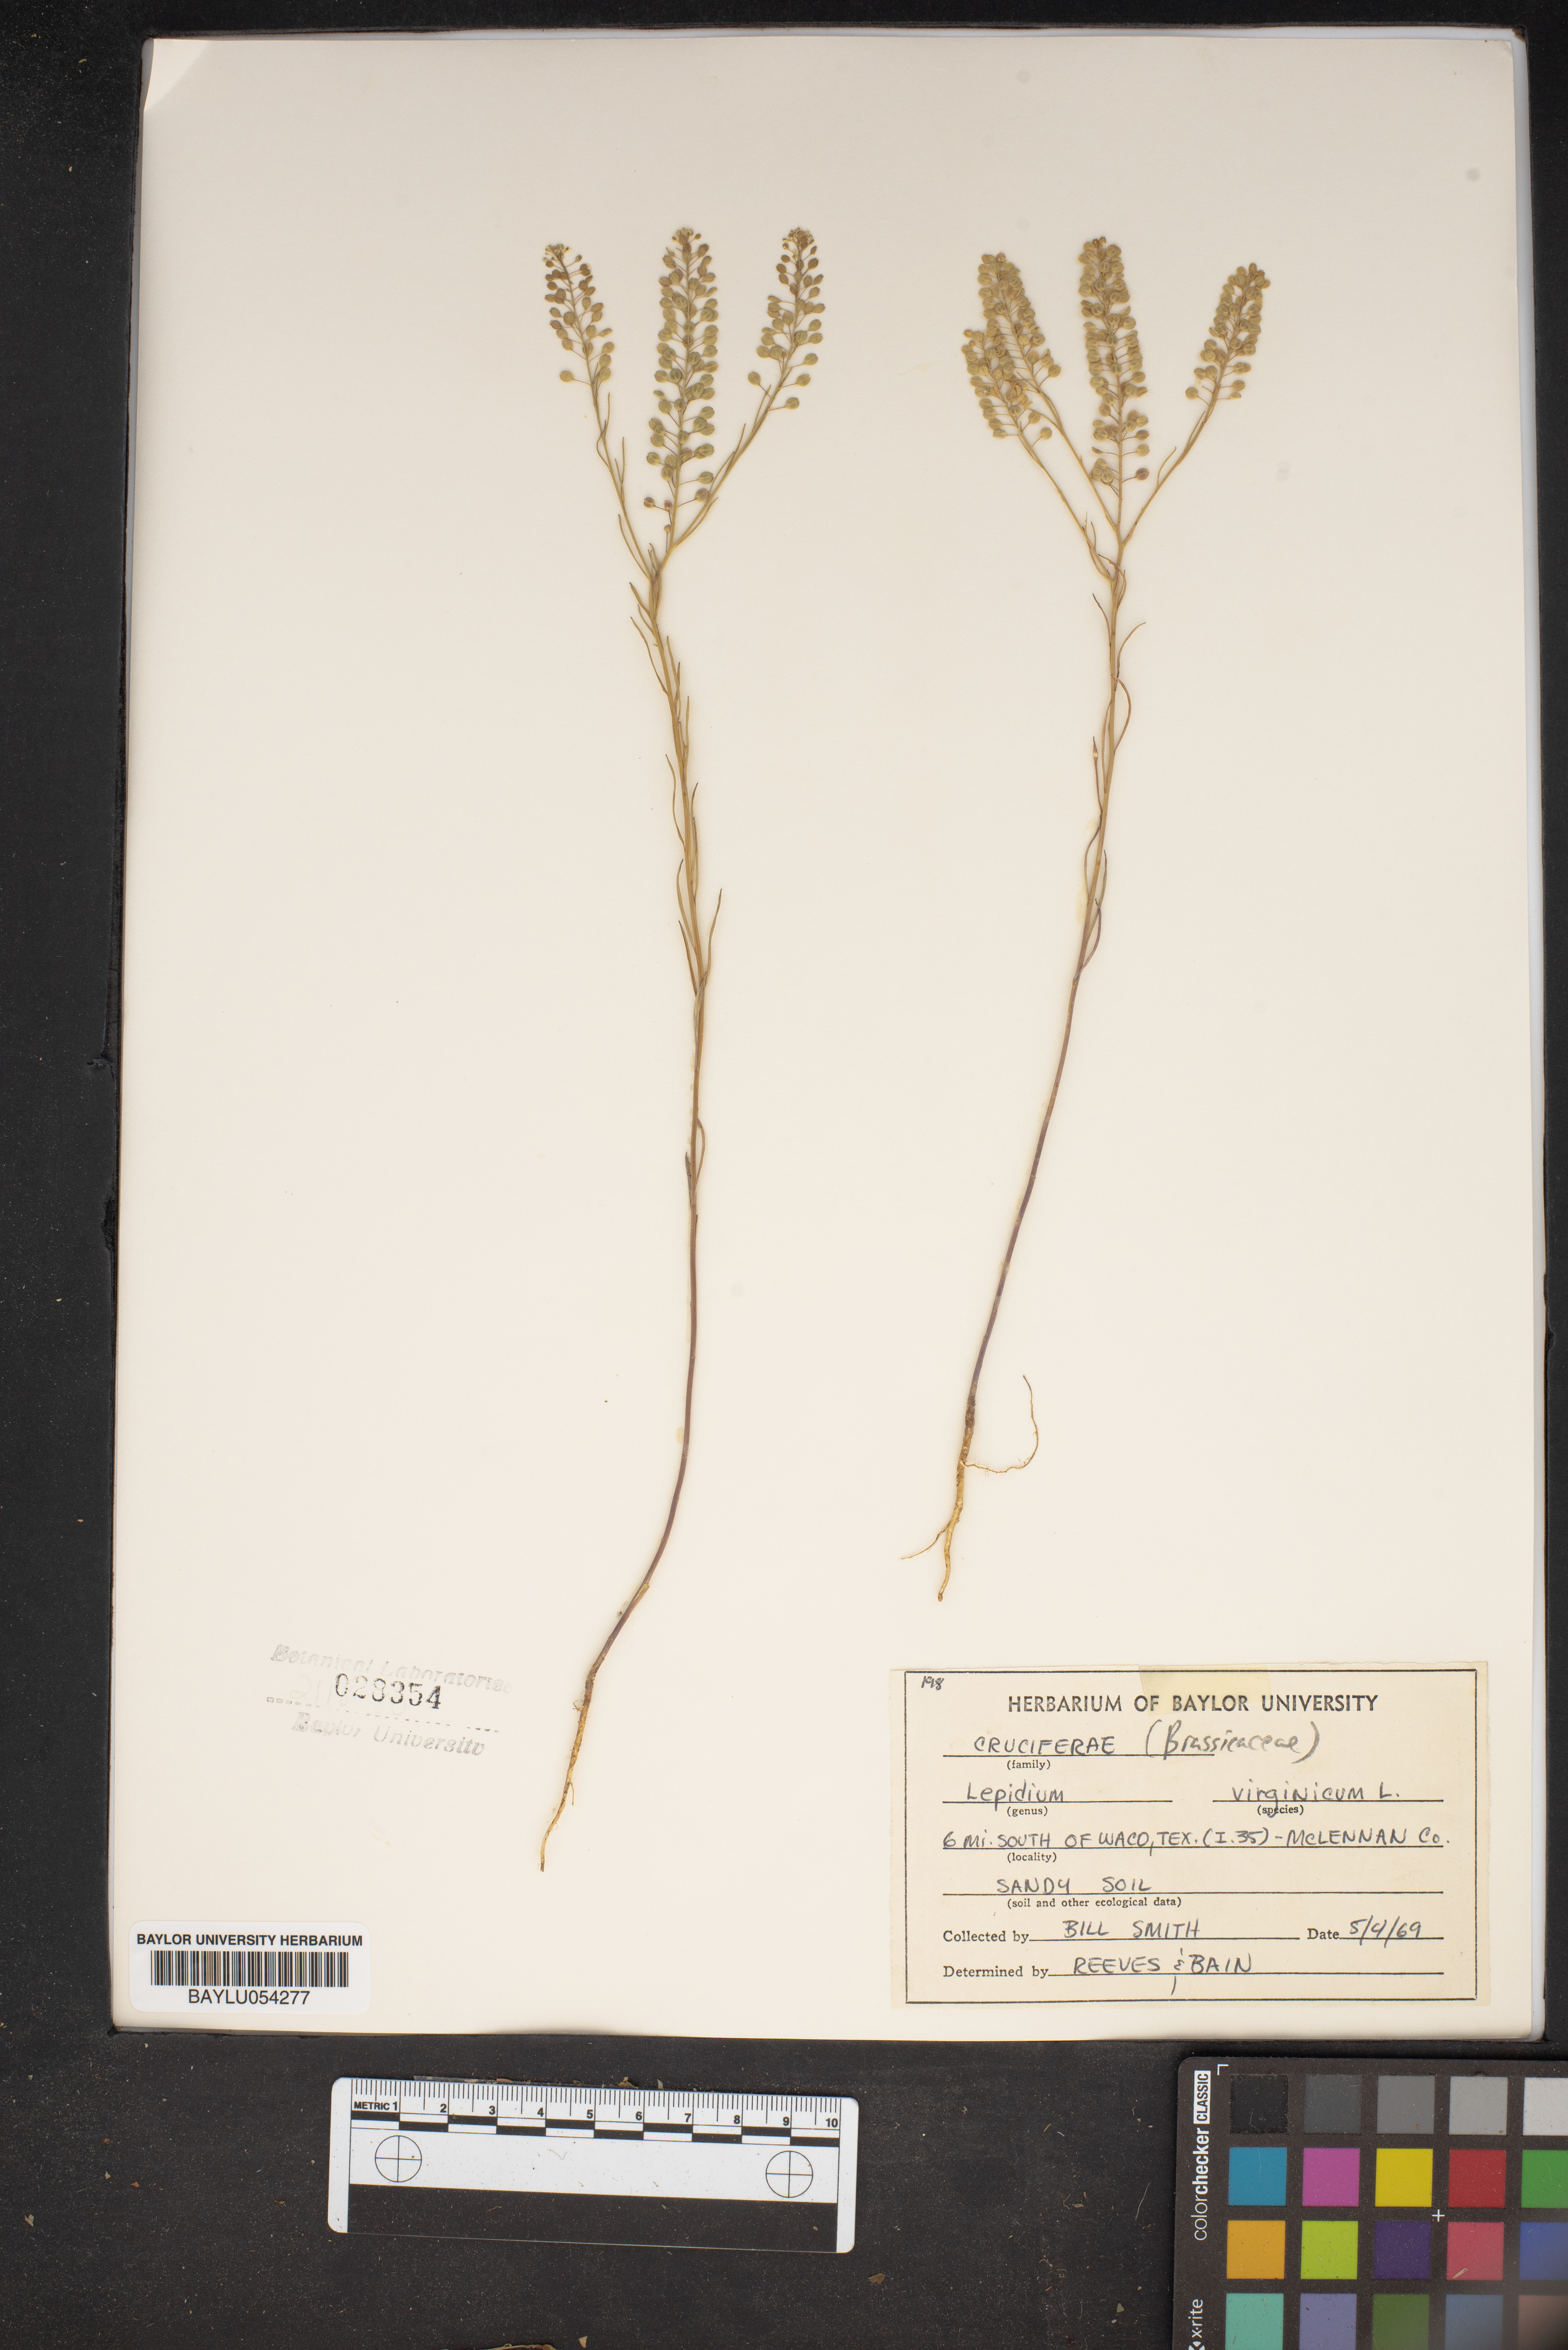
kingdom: Plantae
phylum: Tracheophyta
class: Magnoliopsida
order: Brassicales
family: Brassicaceae
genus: Lepidium
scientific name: Lepidium virginicum
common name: Least pepperwort
